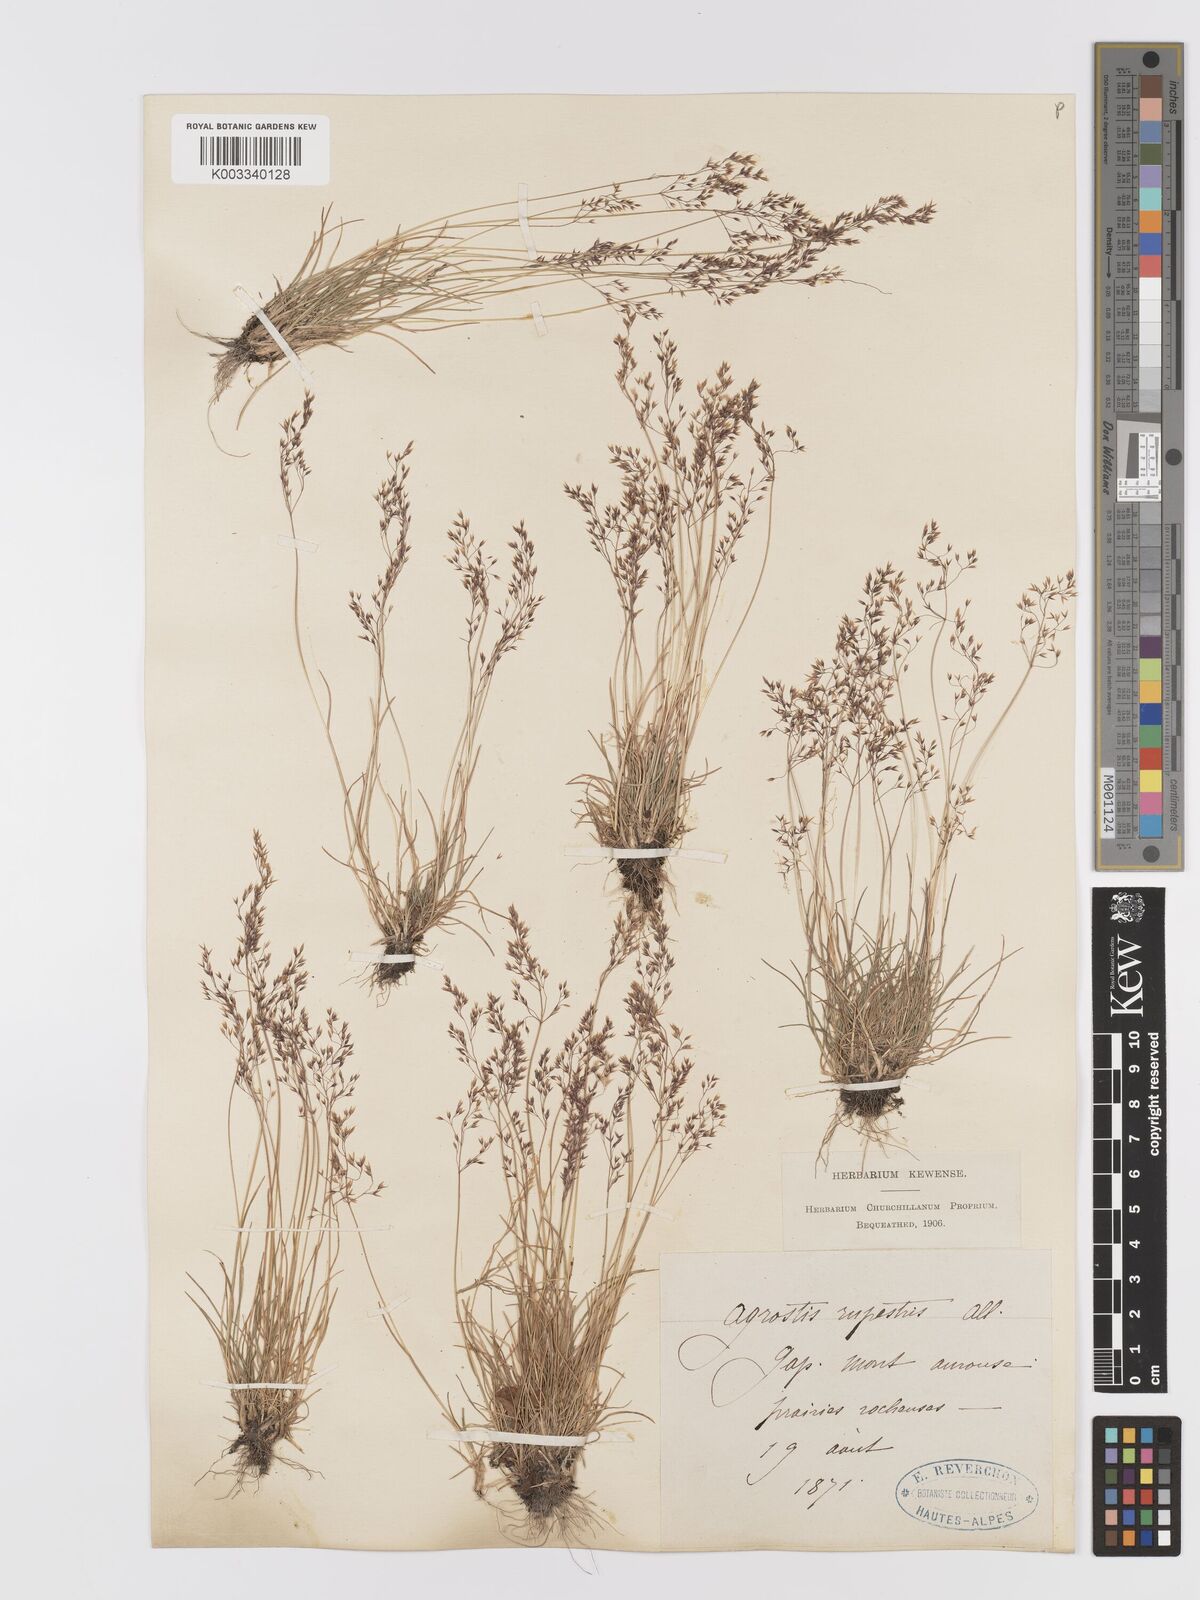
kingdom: Plantae
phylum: Tracheophyta
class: Liliopsida
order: Poales
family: Poaceae
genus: Agrostis
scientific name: Agrostis rupestris
